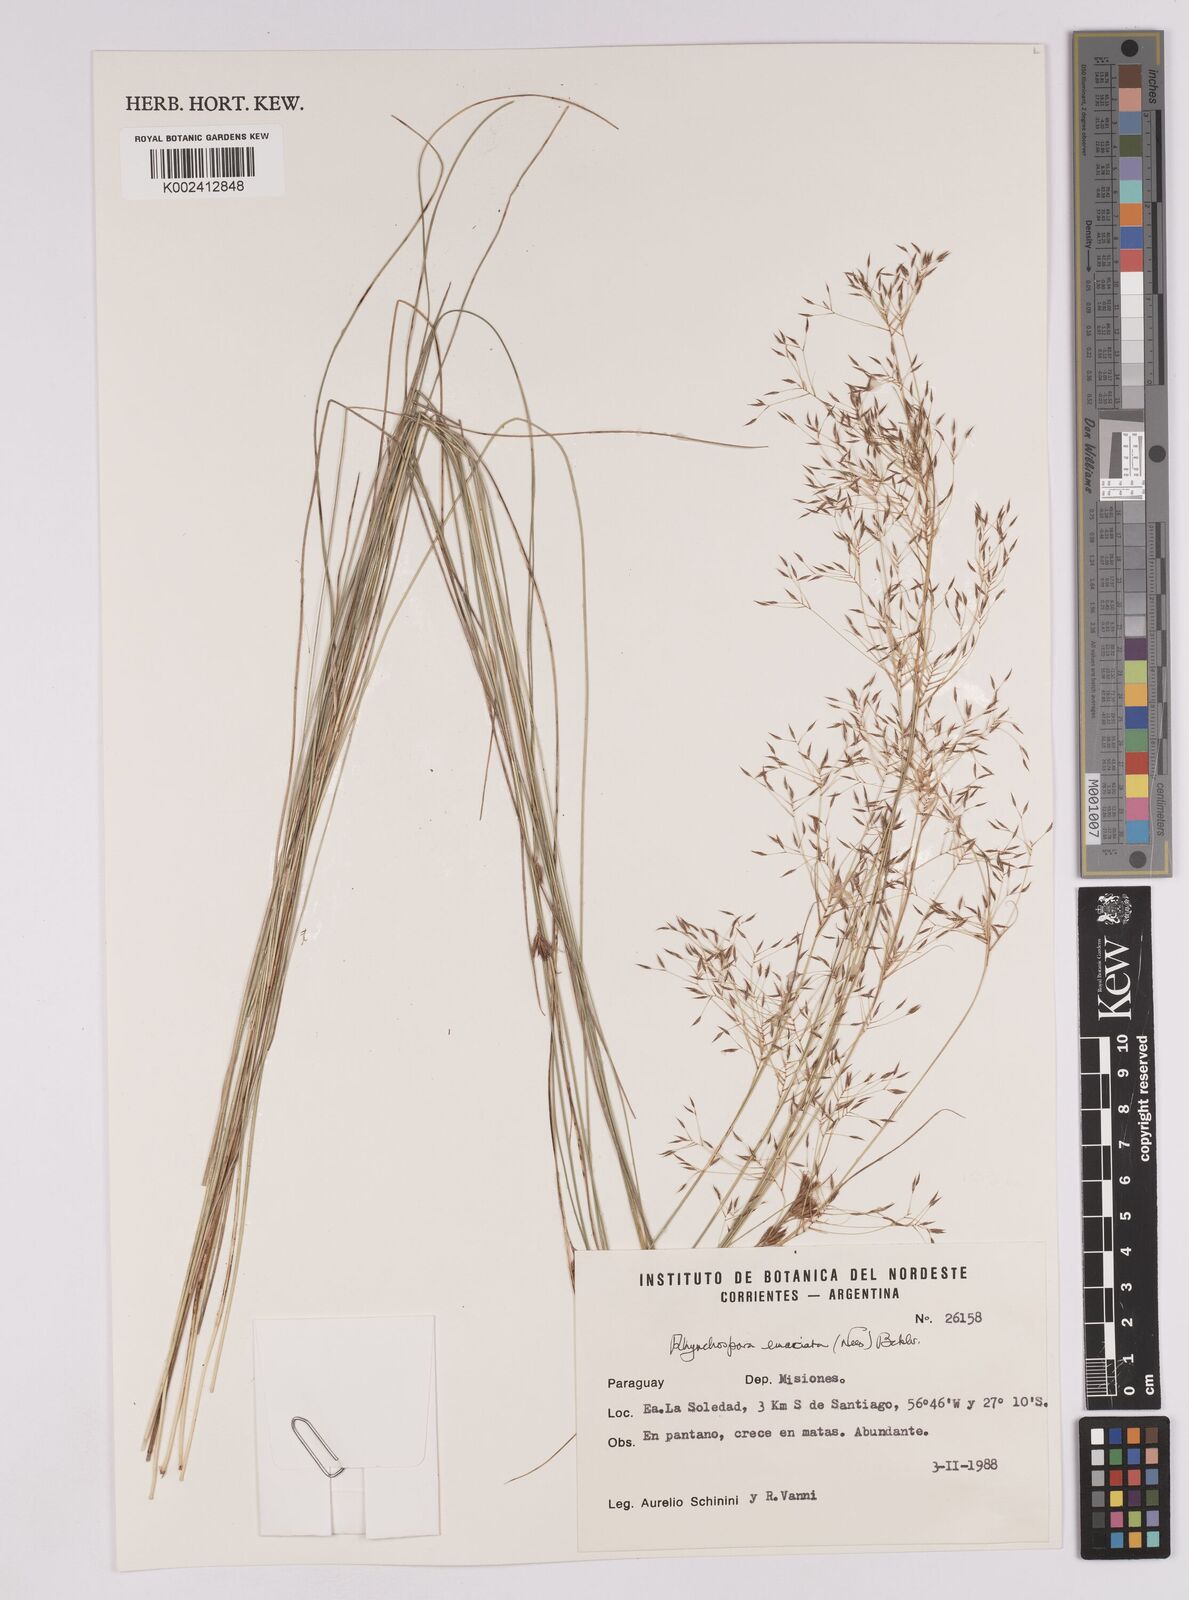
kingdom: Plantae
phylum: Tracheophyta
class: Liliopsida
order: Poales
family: Cyperaceae
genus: Rhynchospora
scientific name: Rhynchospora emaciata
